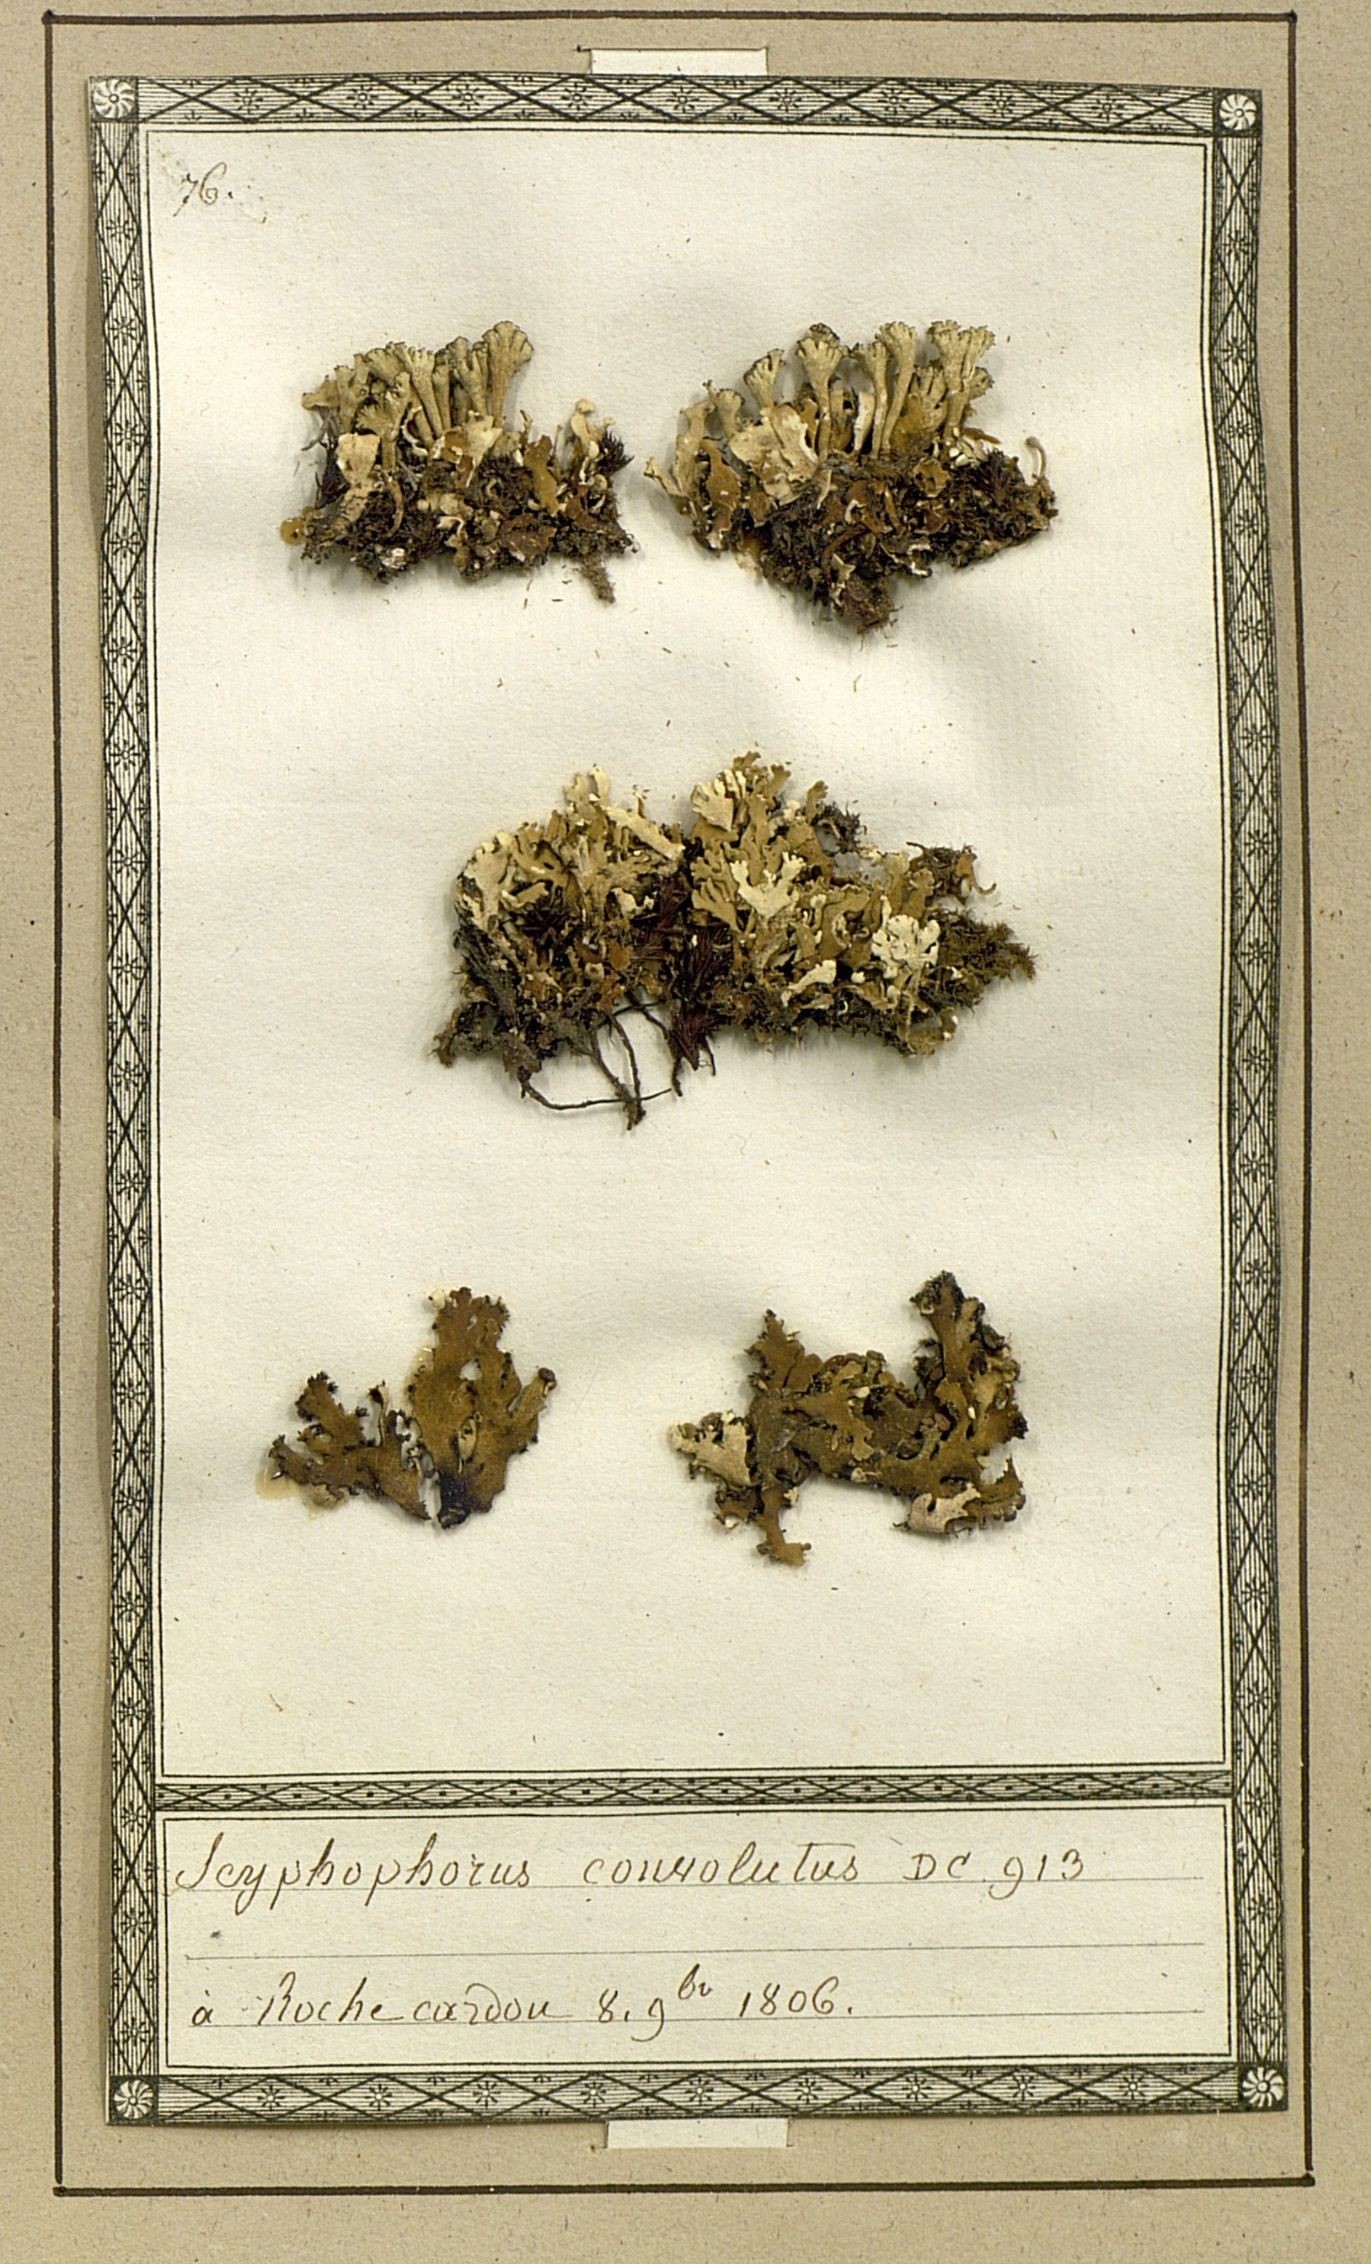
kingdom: Fungi
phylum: Ascomycota
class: Lecanoromycetes
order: Lecanorales
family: Cladoniaceae
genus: Cladonia
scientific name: Cladonia foliacea
